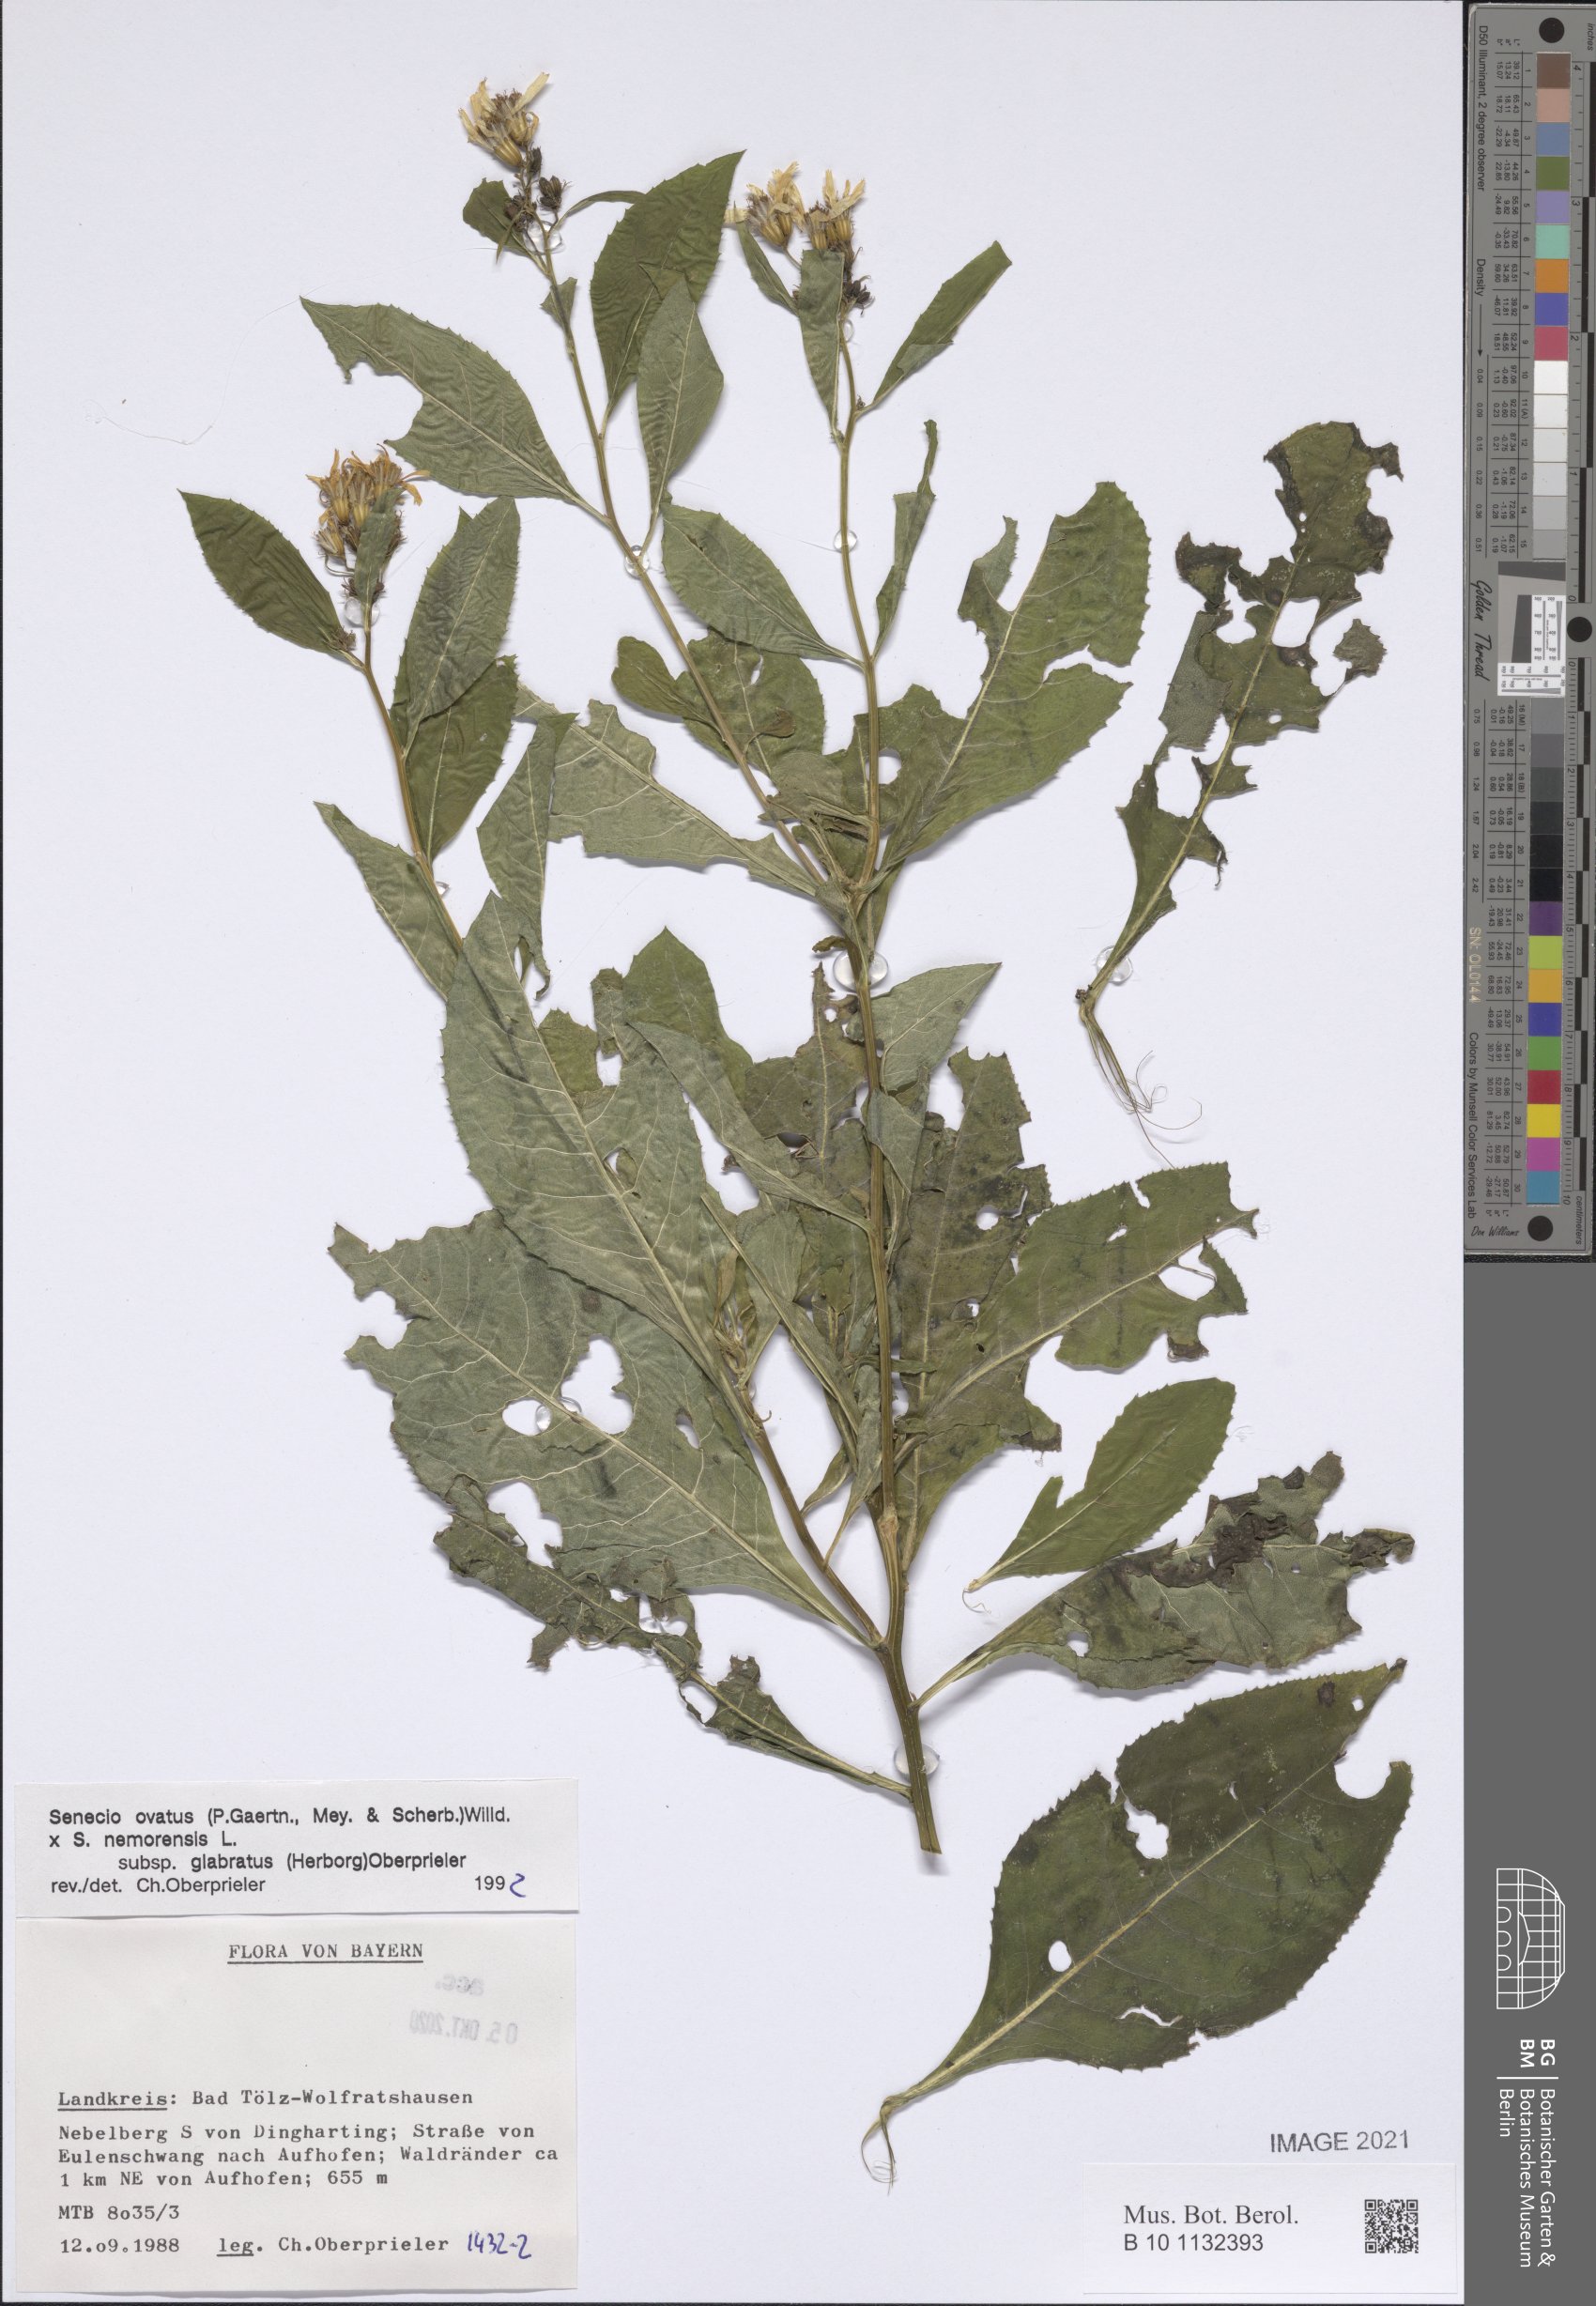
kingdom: Plantae
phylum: Tracheophyta
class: Magnoliopsida
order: Asterales
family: Asteraceae
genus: Senecio
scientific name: Senecio ovatus
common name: Wood ragwort
